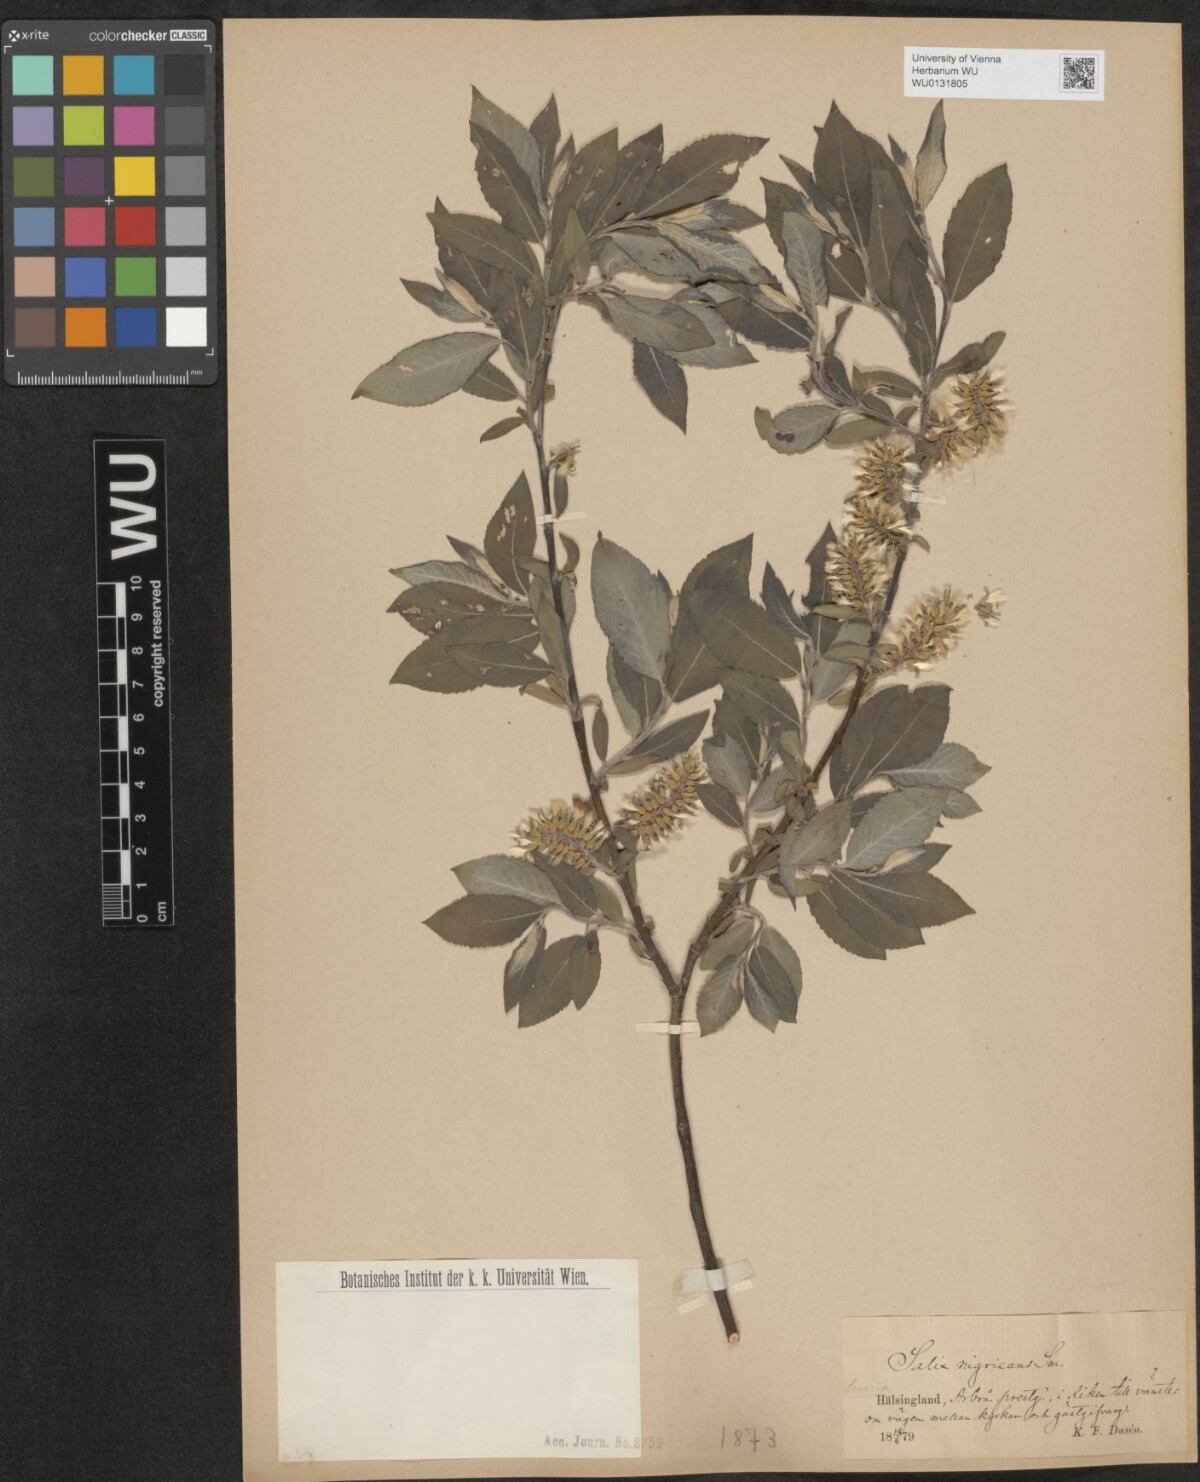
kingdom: Plantae
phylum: Tracheophyta
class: Magnoliopsida
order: Malpighiales
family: Salicaceae
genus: Salix
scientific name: Salix myrsinifolia
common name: Dark-leaved willow
